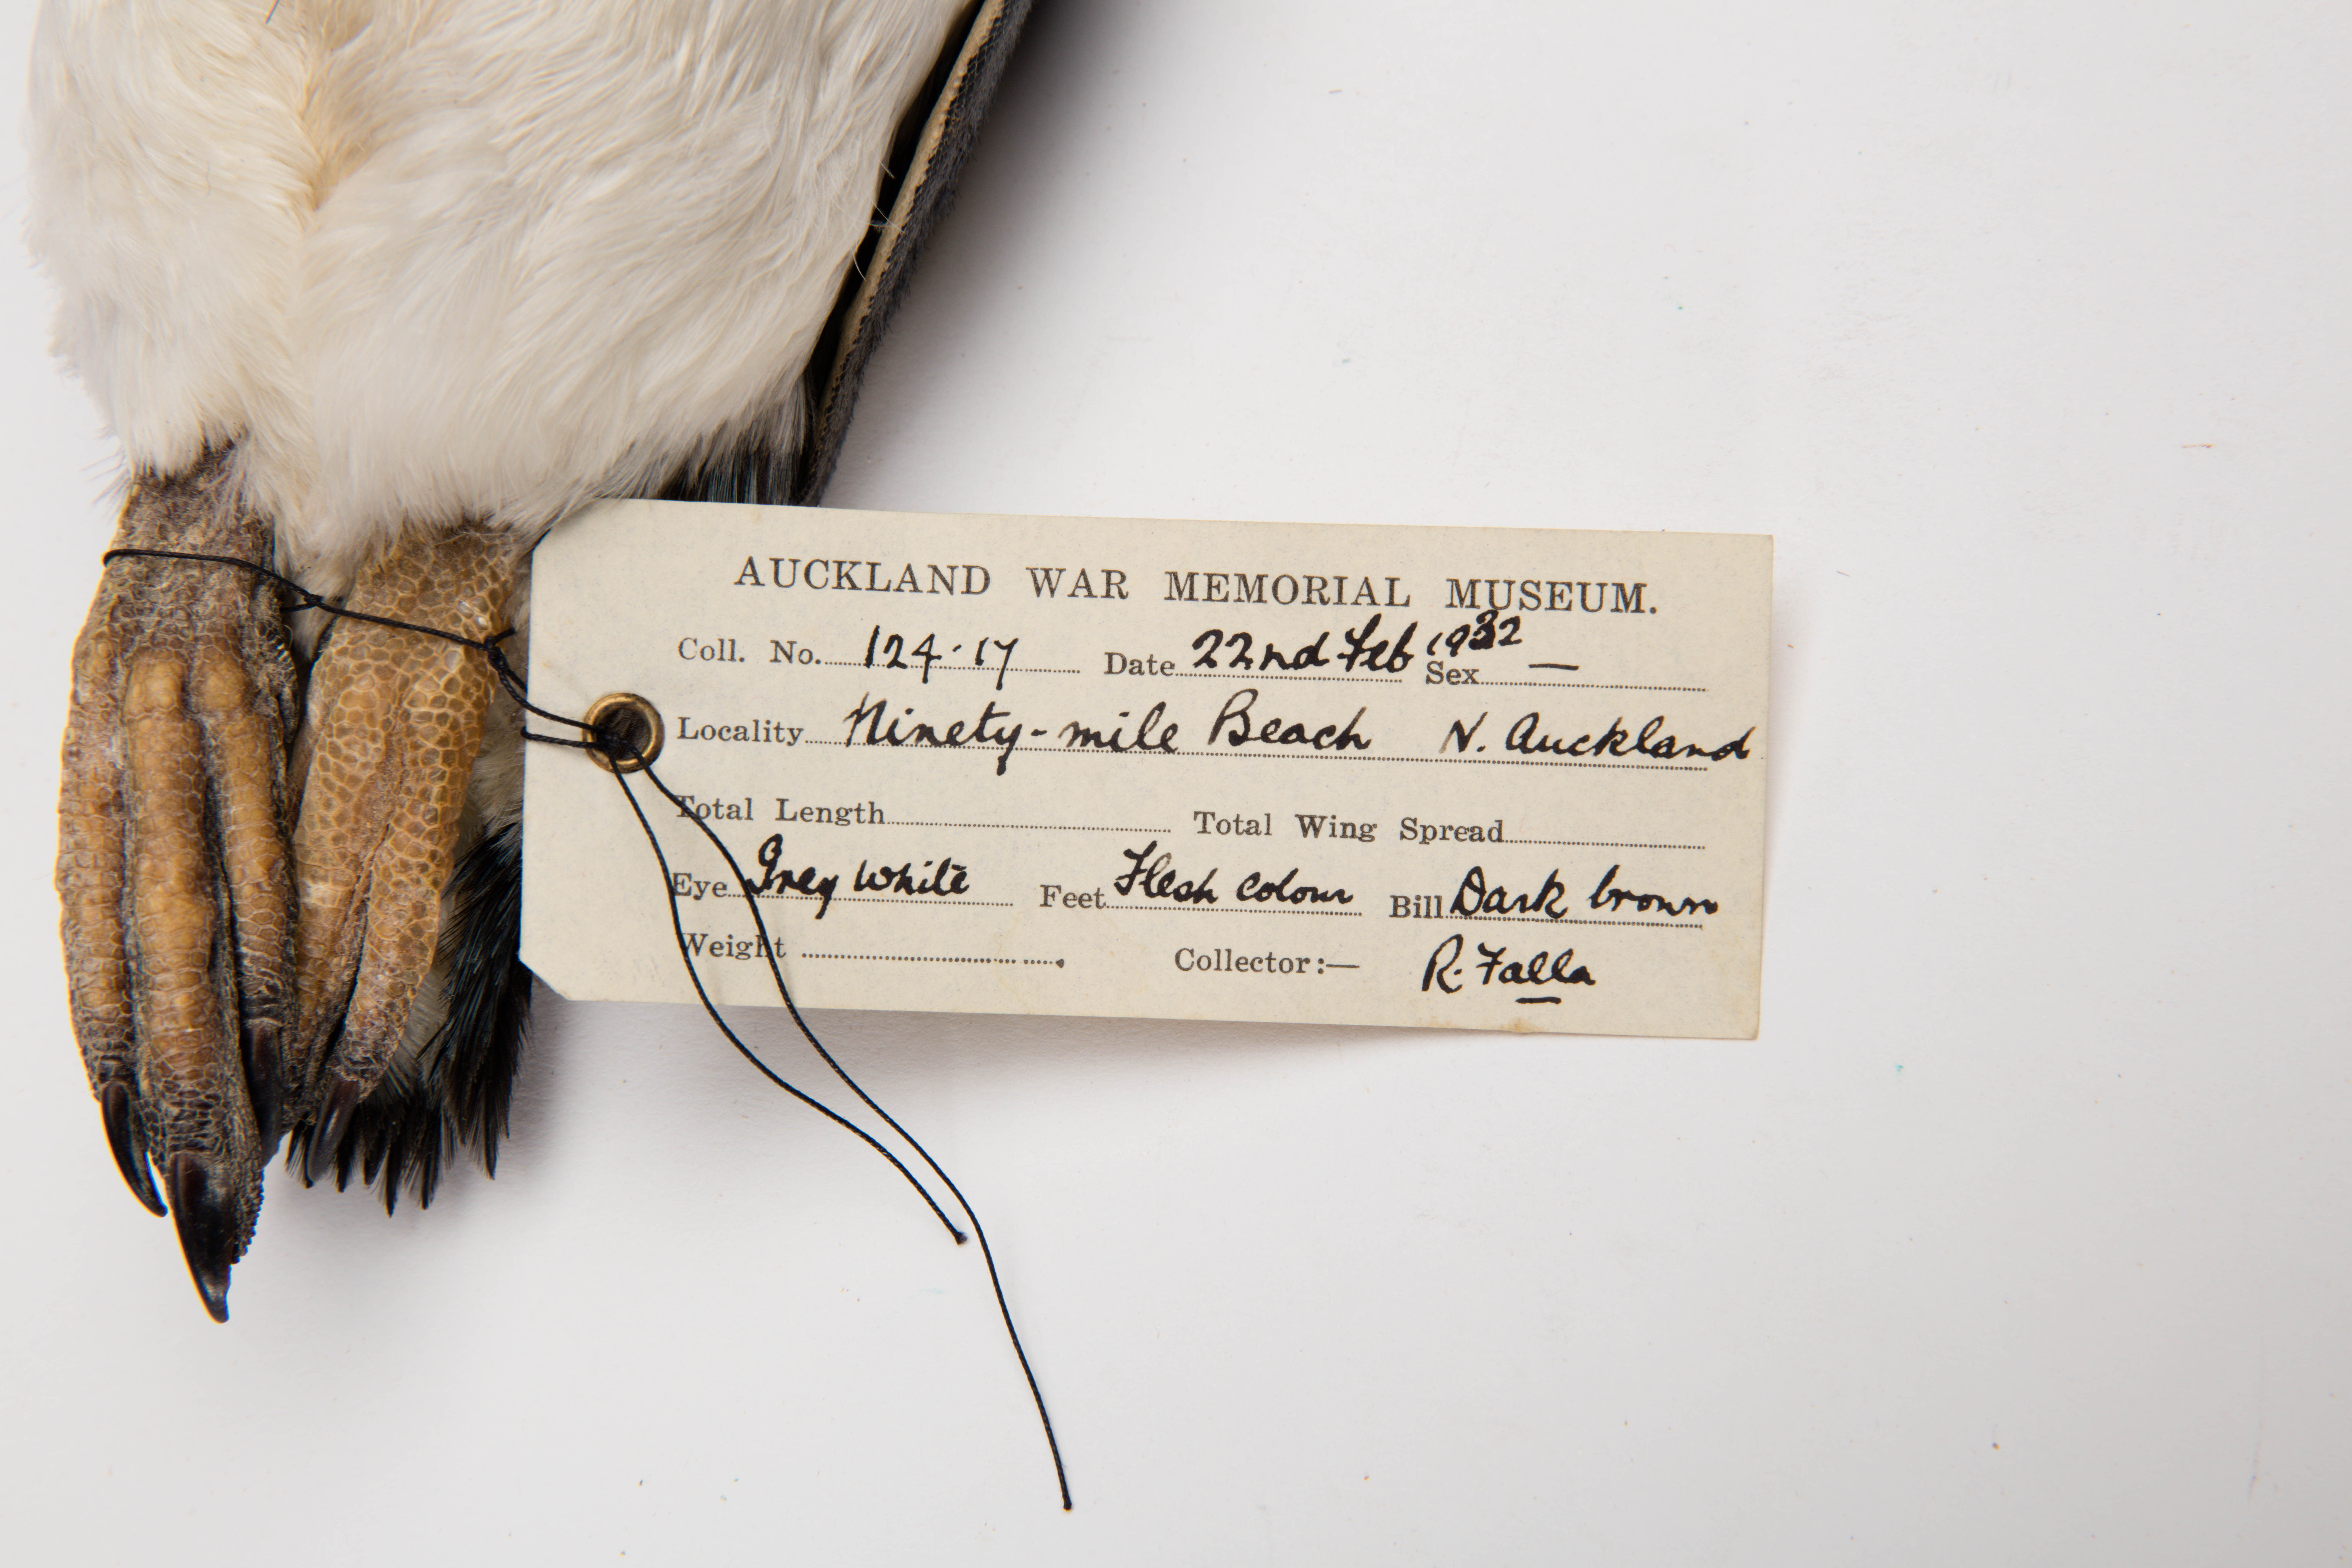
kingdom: Animalia
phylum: Chordata
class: Aves
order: Sphenisciformes
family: Spheniscidae
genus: Eudyptula
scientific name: Eudyptula minor
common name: Little penguin
